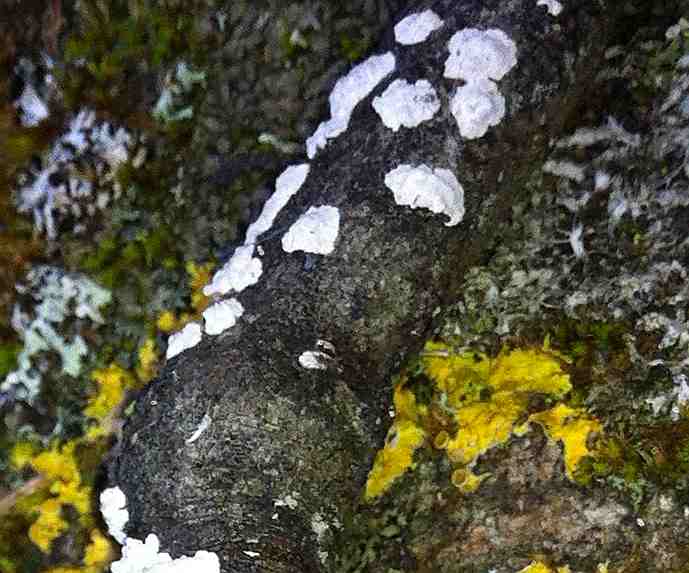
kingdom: Fungi
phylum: Basidiomycota
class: Agaricomycetes
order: Russulales
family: Peniophoraceae
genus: Peniophora
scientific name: Peniophora polygonia
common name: polygon-voksskind
